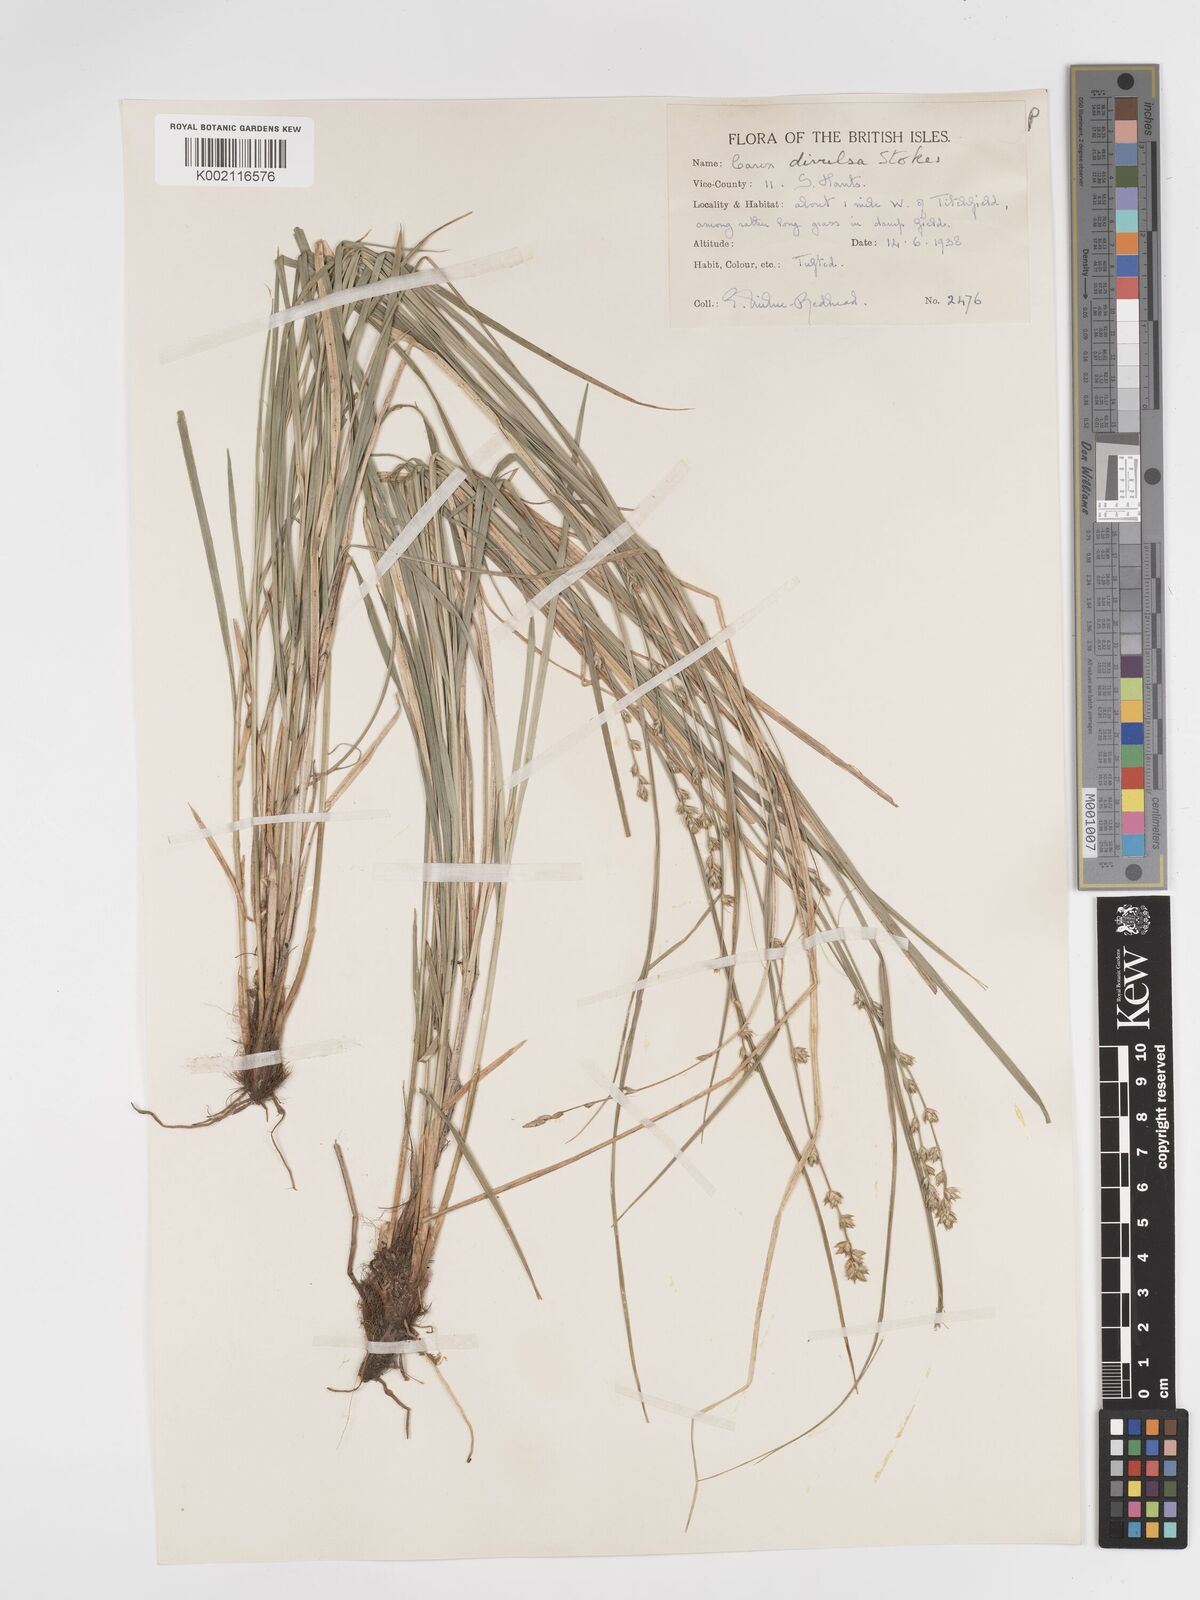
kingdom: Plantae
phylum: Tracheophyta
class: Liliopsida
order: Poales
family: Cyperaceae
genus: Carex
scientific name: Carex divulsa
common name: Grassland sedge
